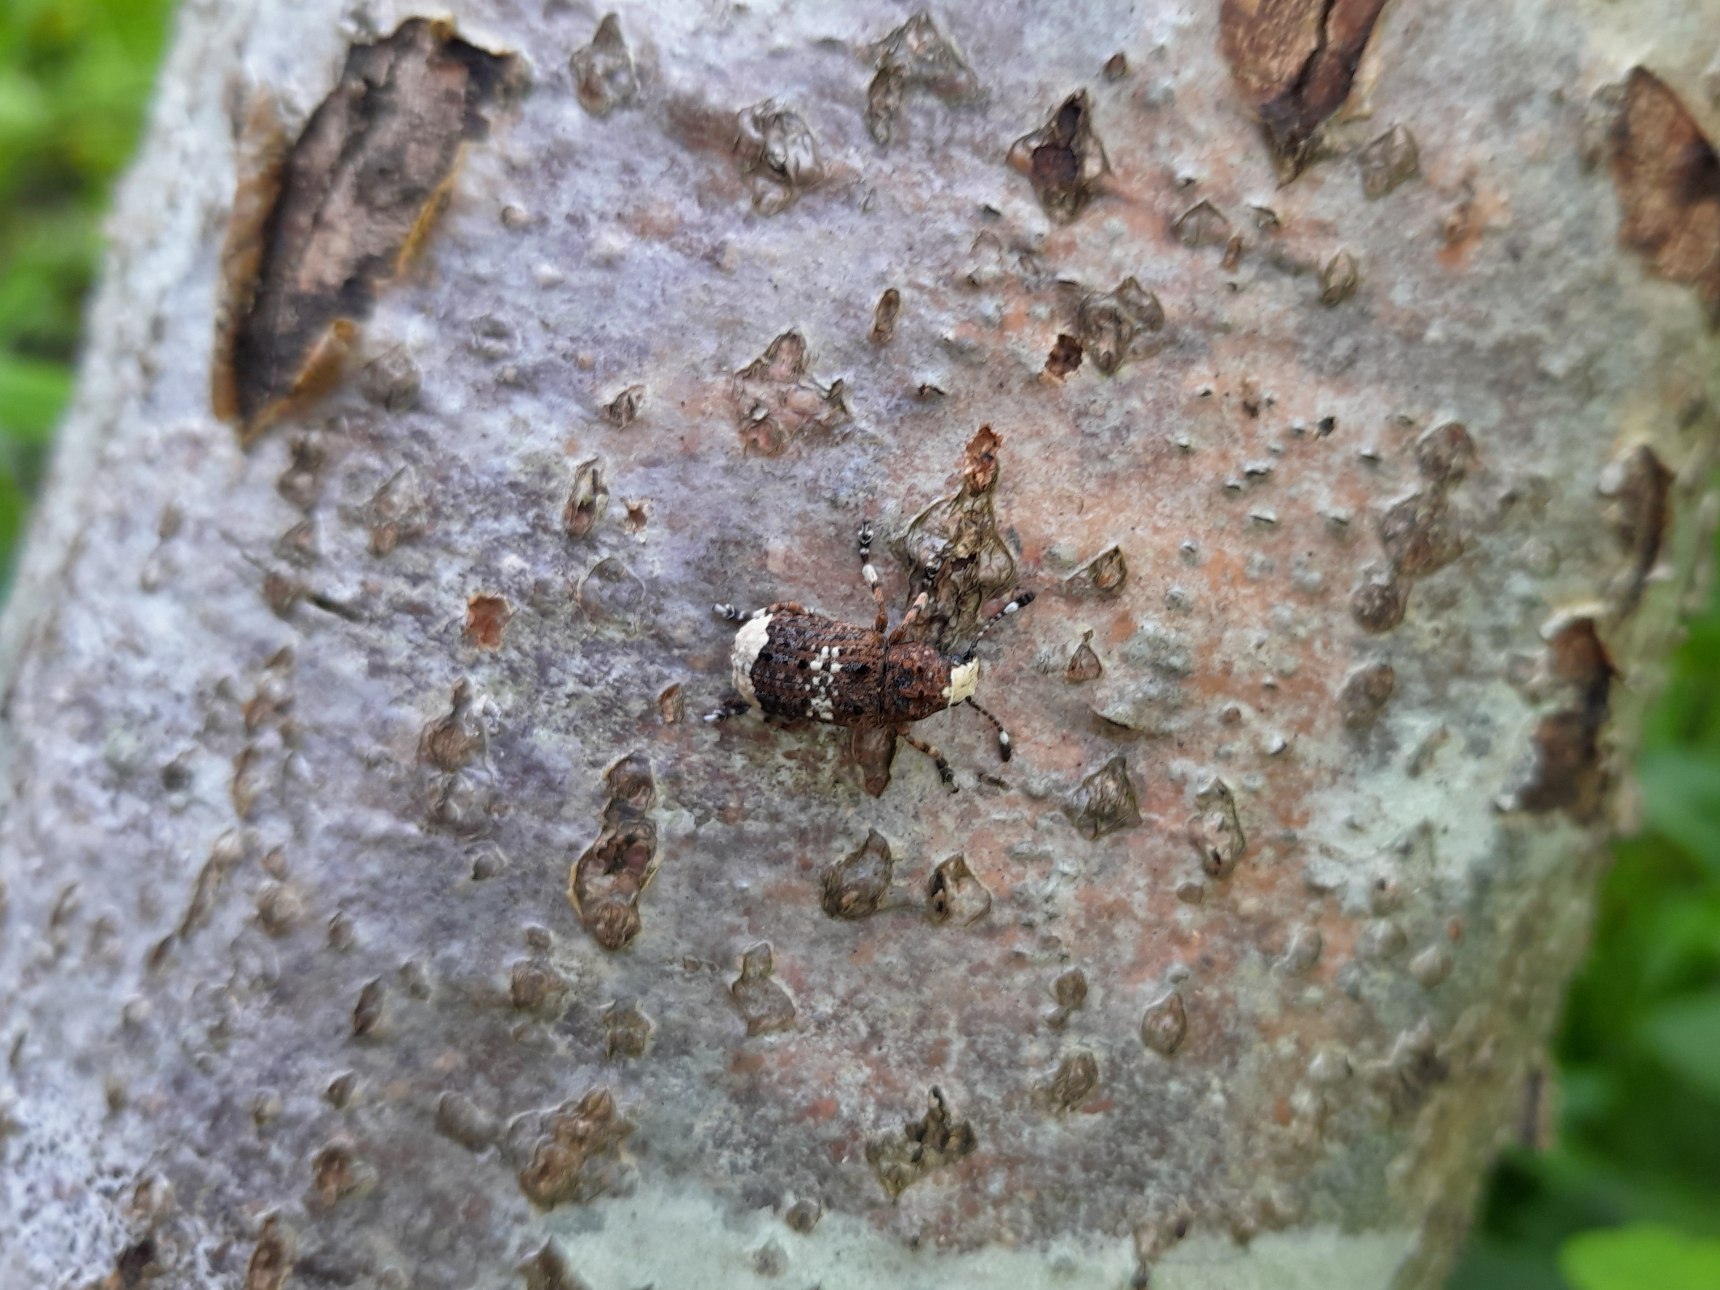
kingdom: Animalia
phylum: Arthropoda
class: Insecta
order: Coleoptera
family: Anthribidae
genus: Platystomos
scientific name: Platystomos albinus
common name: Hvidhovedet bredsnudebille
